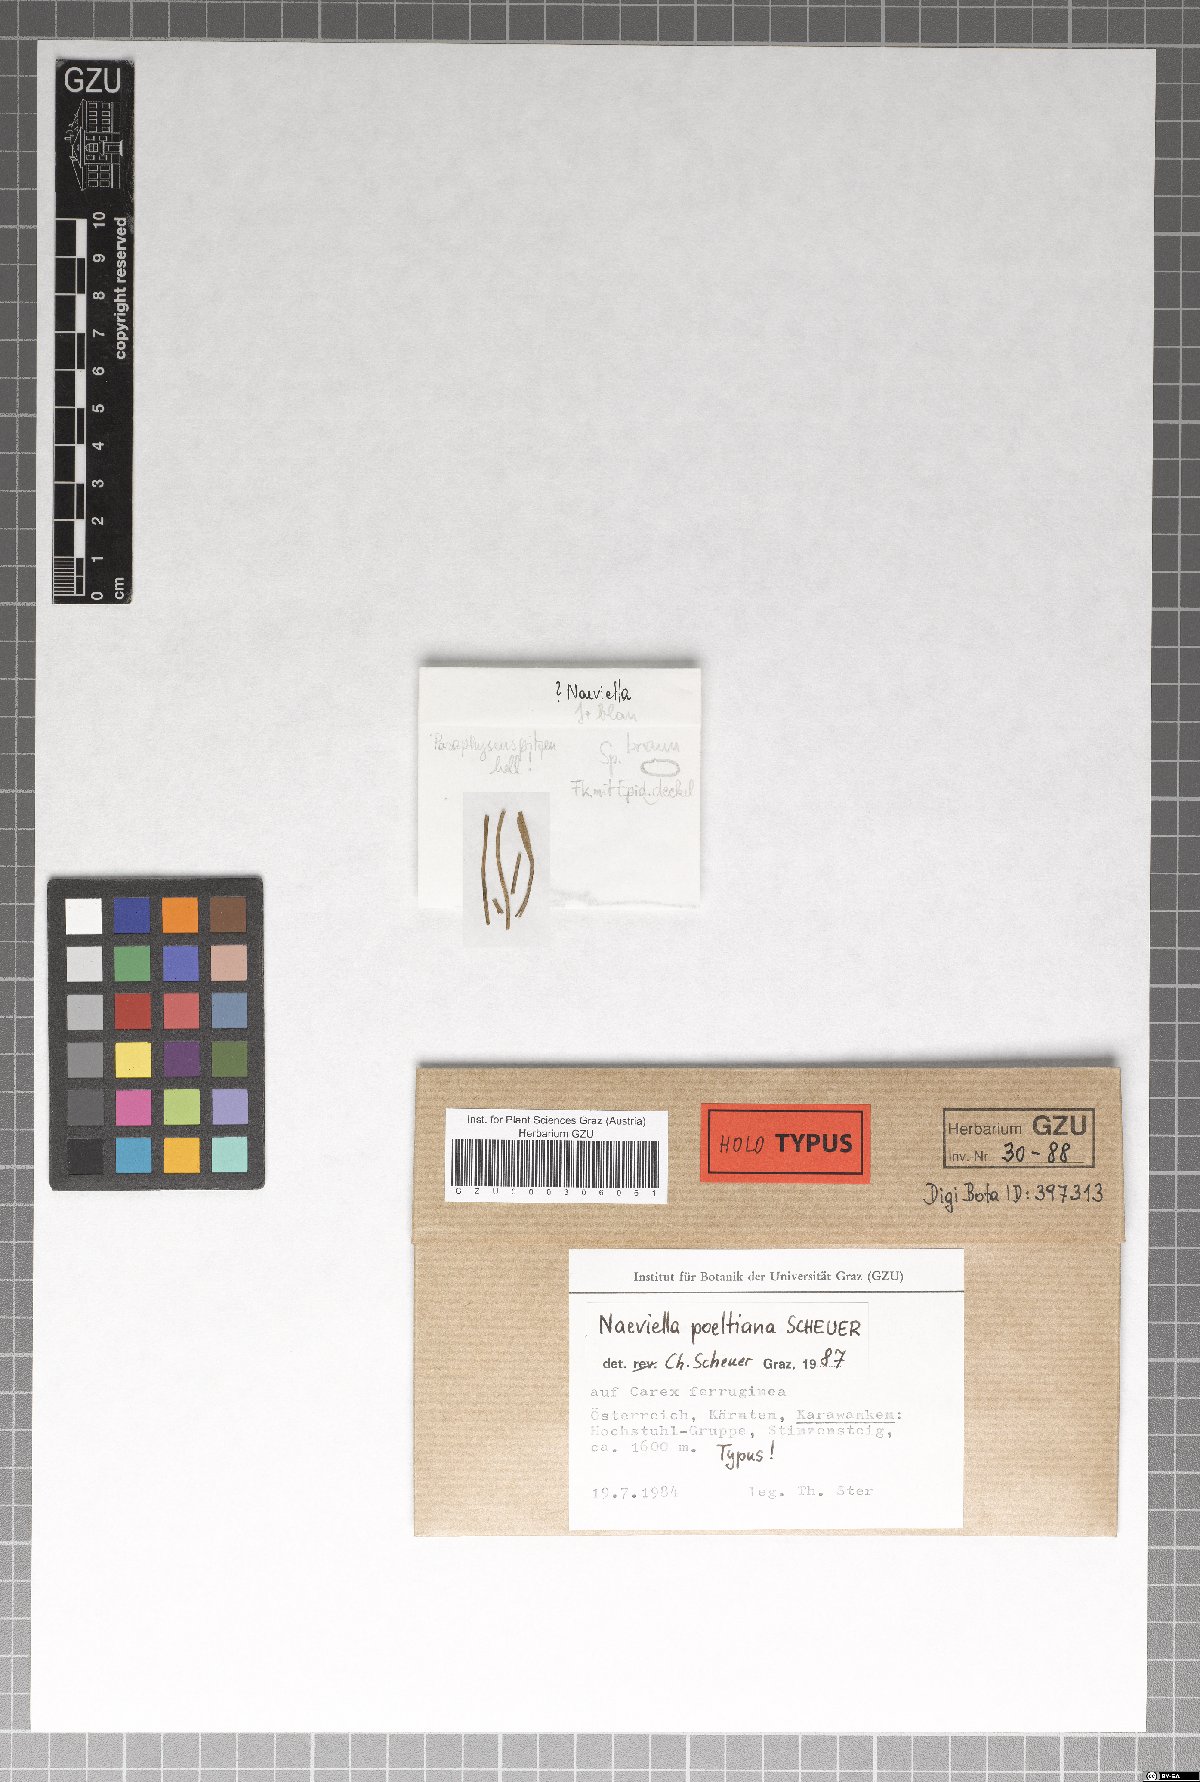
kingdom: Fungi
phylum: Ascomycota
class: Leotiomycetes
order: Helotiales
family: Calloriaceae
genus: Naeviella
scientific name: Naeviella poeltiana
